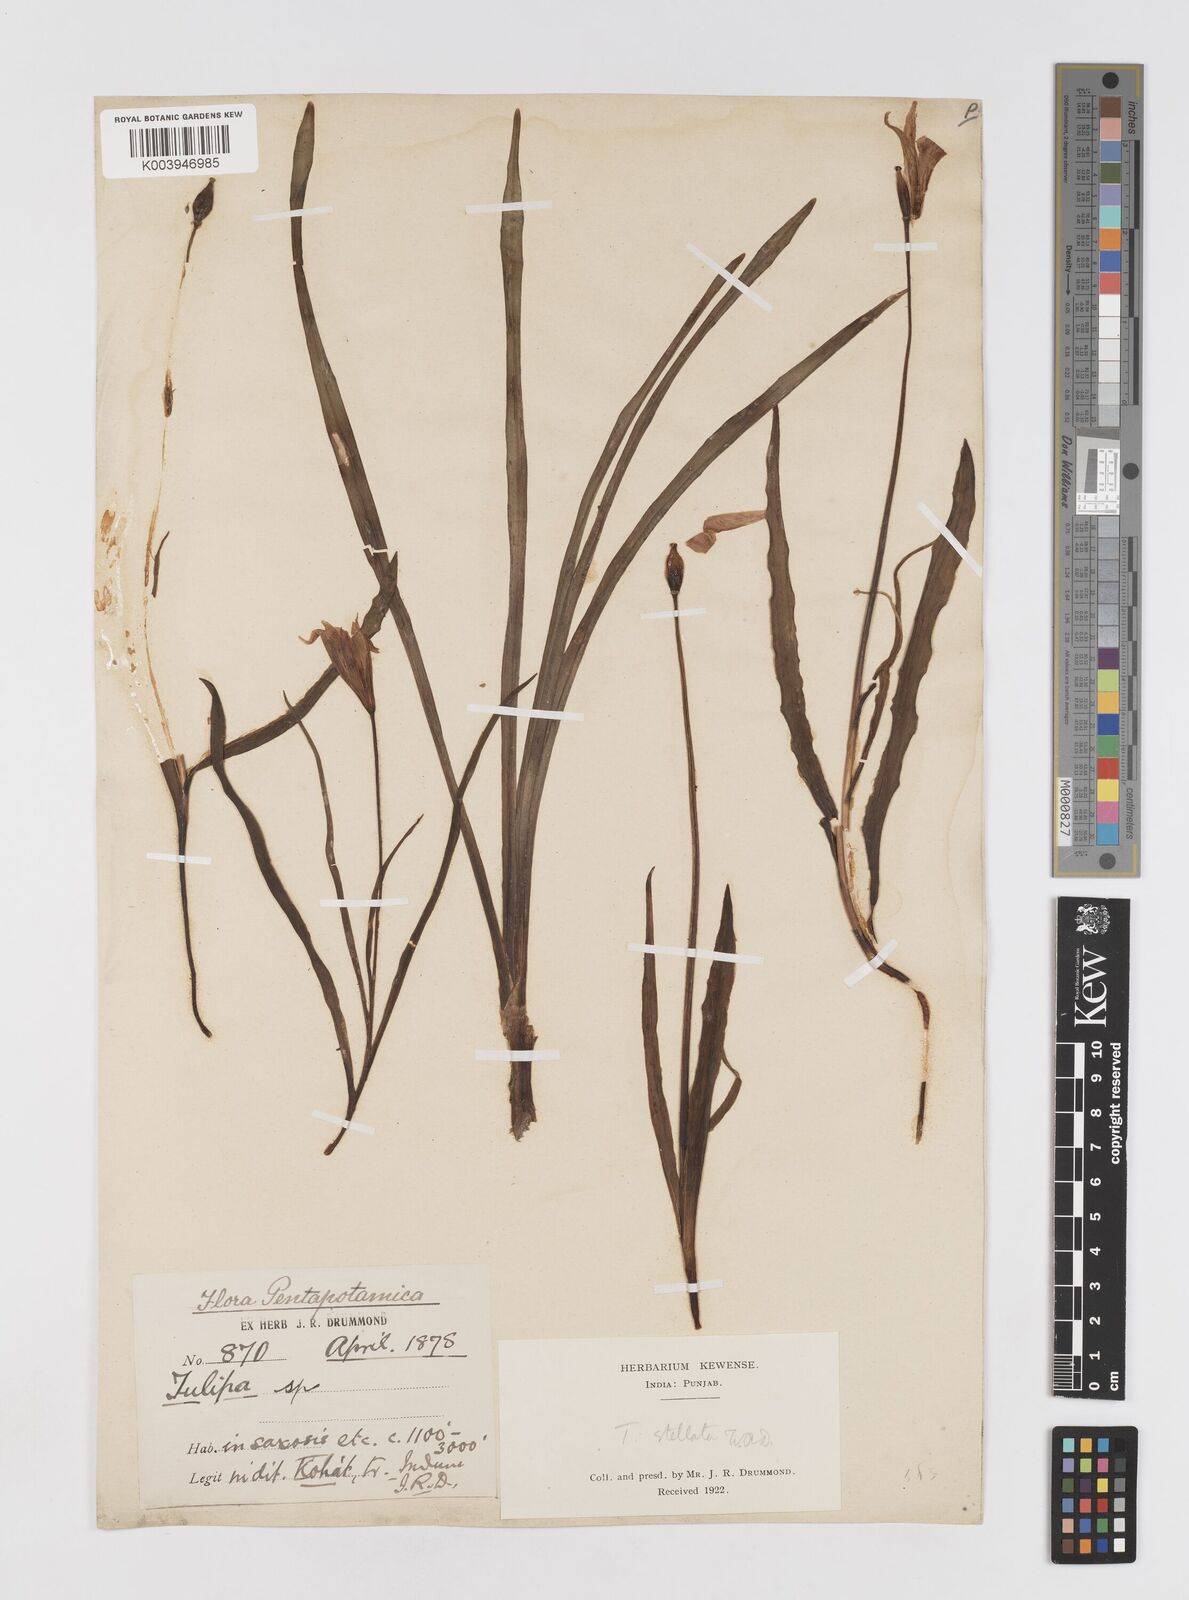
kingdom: Plantae
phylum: Tracheophyta
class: Liliopsida
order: Liliales
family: Liliaceae
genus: Tulipa
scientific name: Tulipa clusiana
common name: Lady tulip
